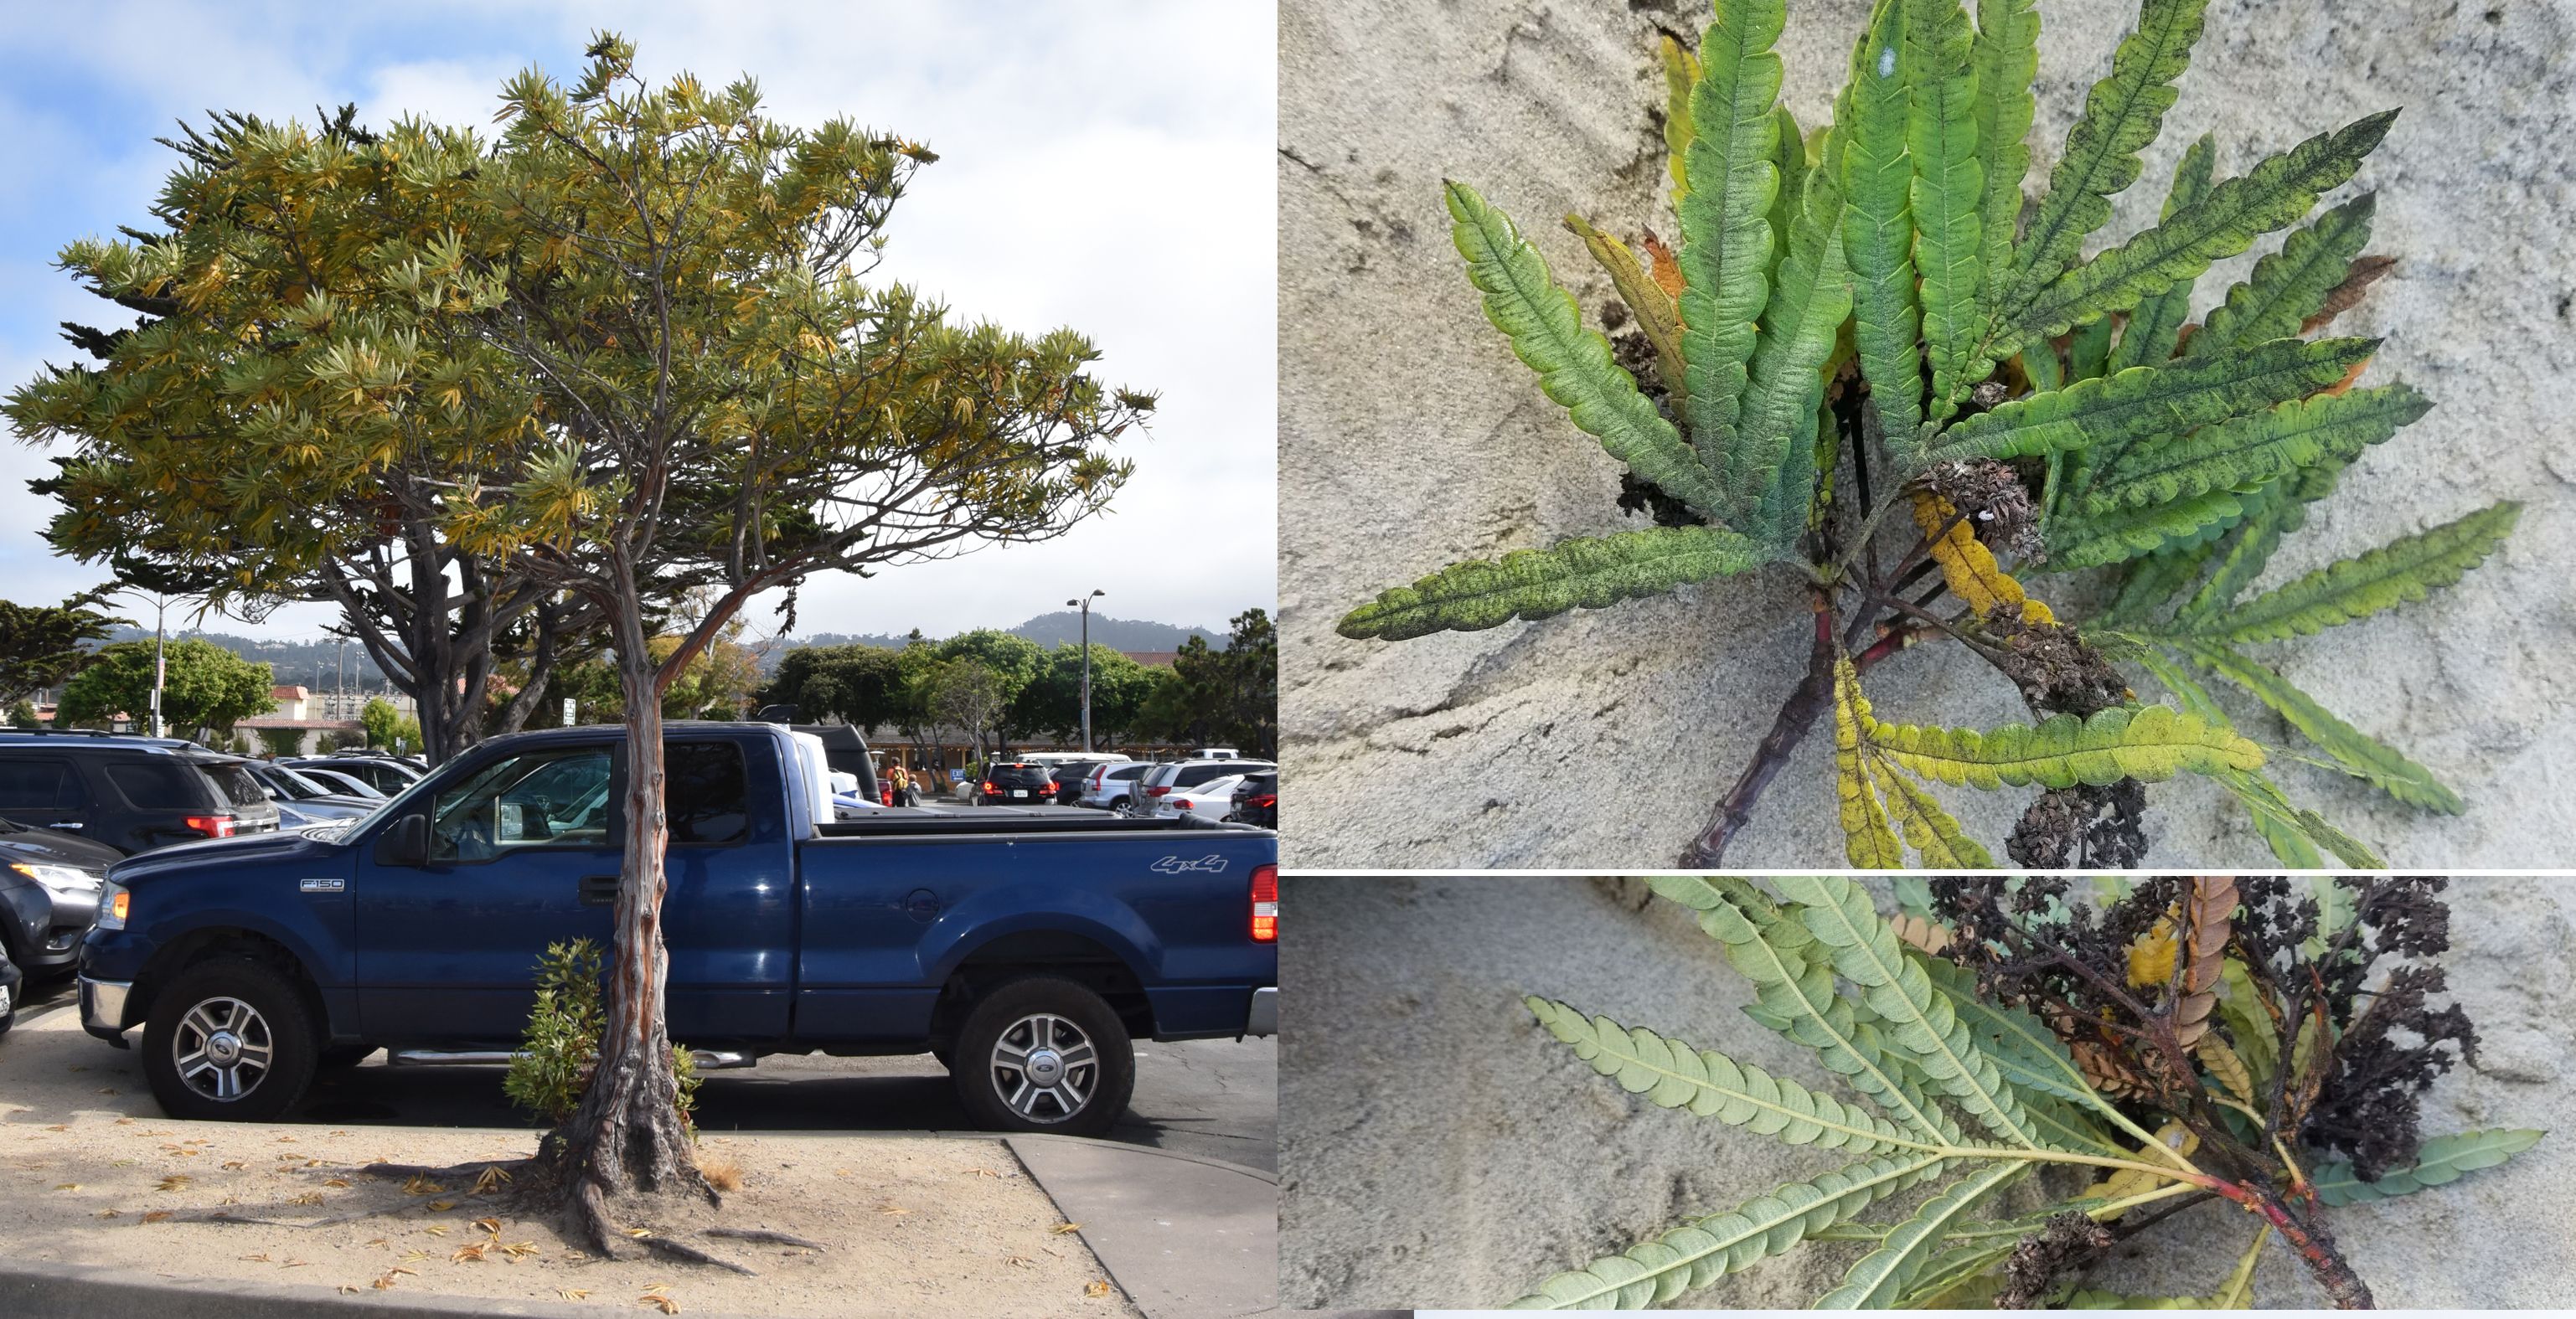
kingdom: Plantae
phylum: Tracheophyta
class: Magnoliopsida
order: Rosales
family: Rosaceae
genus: Lyonothamnus
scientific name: Lyonothamnus floribundus
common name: Catalina ironwood
